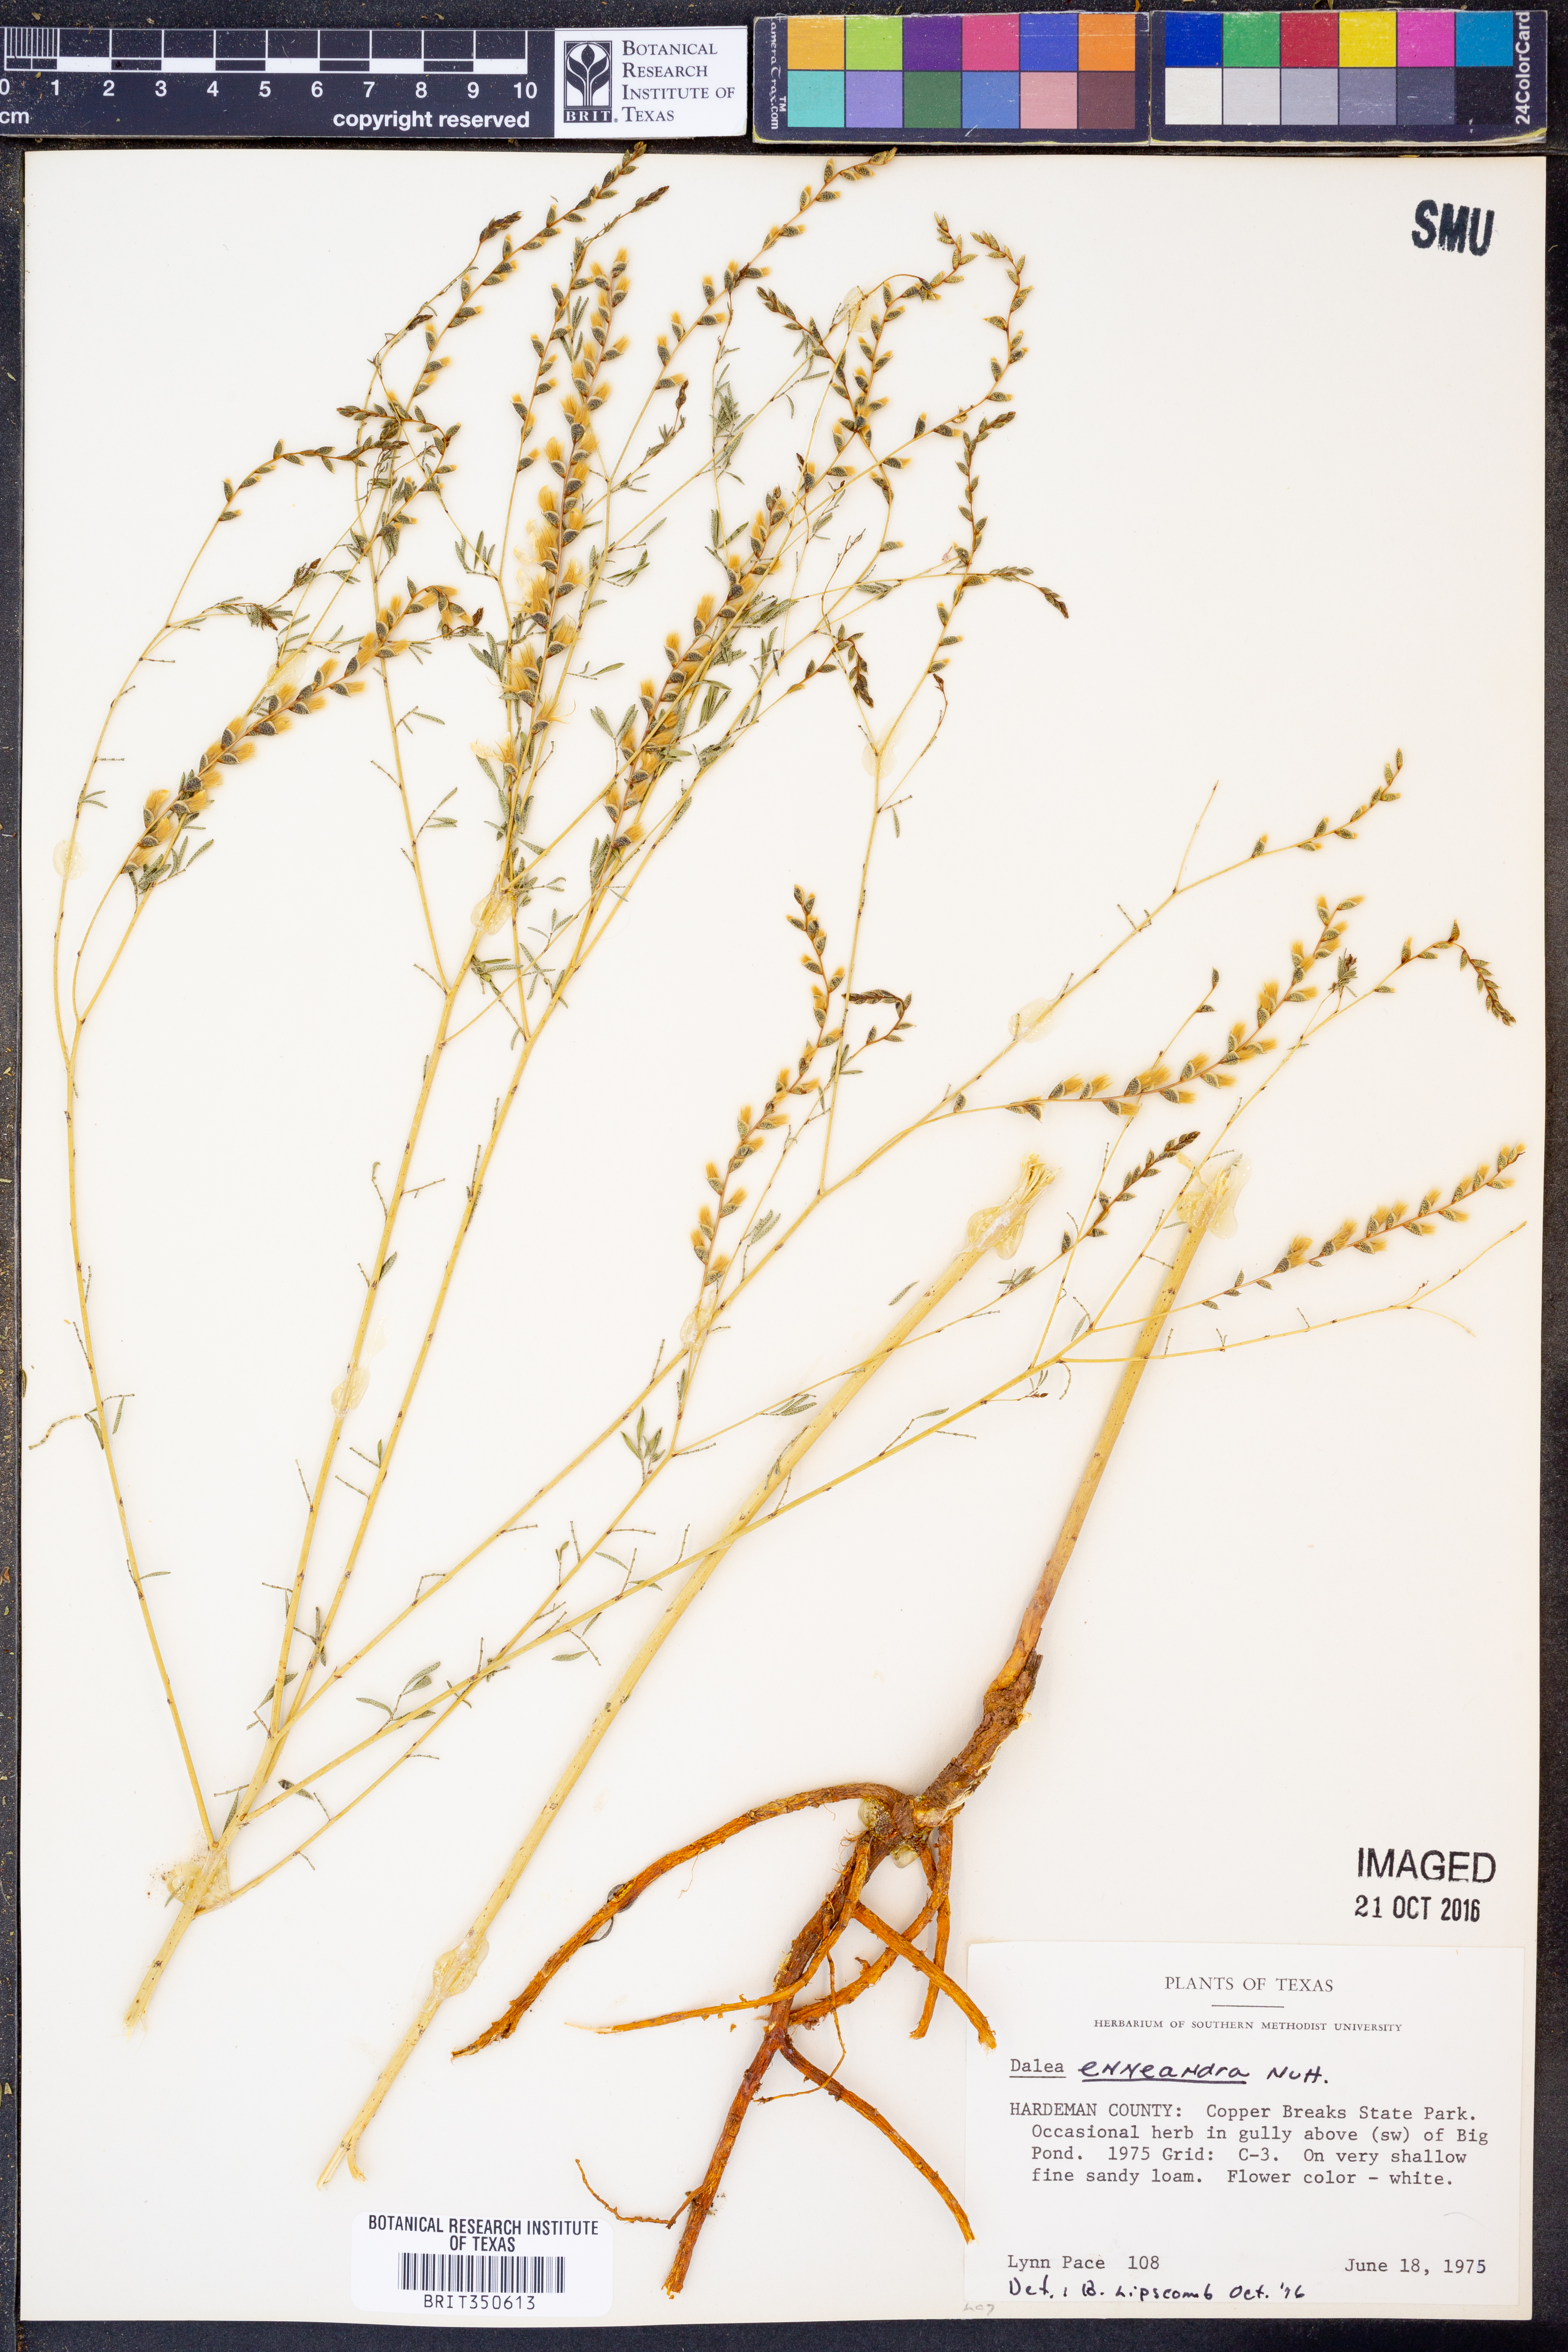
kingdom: Plantae
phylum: Tracheophyta
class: Magnoliopsida
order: Fabales
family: Fabaceae
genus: Dalea
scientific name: Dalea enneandra
